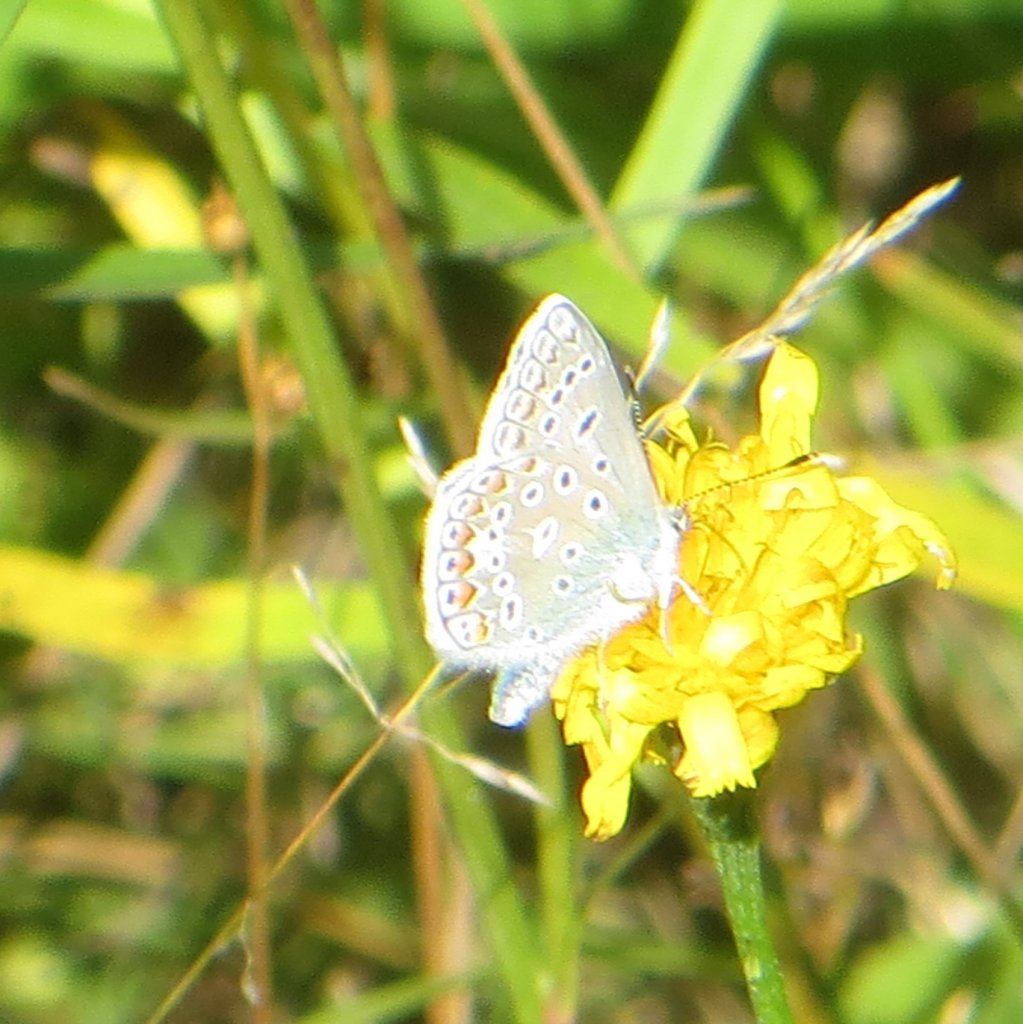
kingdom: Animalia
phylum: Arthropoda
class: Insecta
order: Lepidoptera
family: Lycaenidae
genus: Polyommatus
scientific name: Polyommatus icarus
